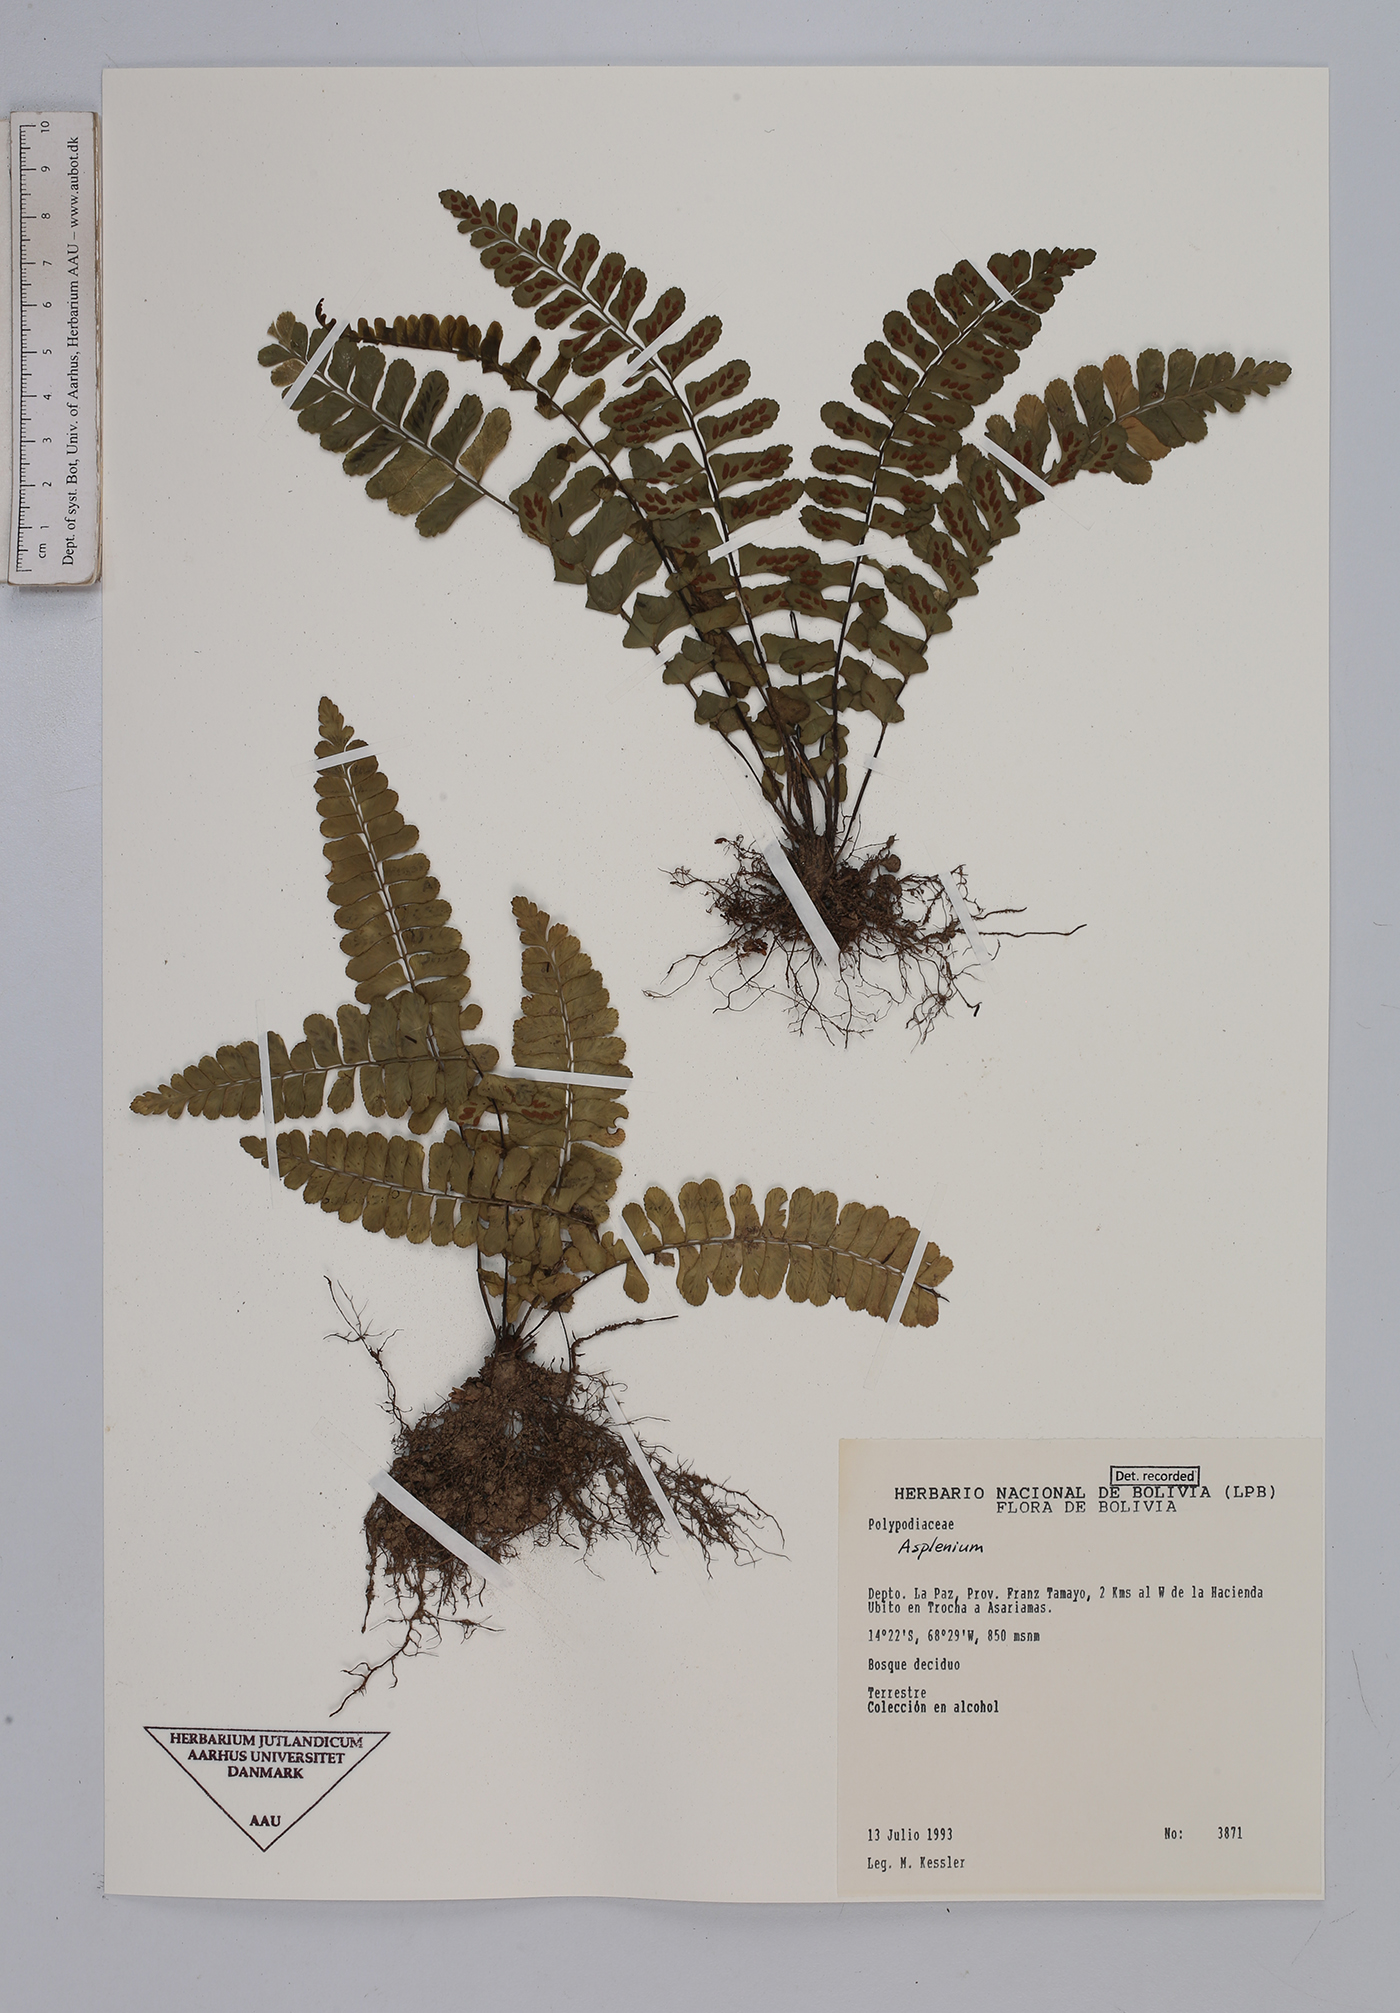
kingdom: Plantae
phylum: Tracheophyta
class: Polypodiopsida
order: Polypodiales
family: Aspleniaceae
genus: Asplenium
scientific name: Asplenium
